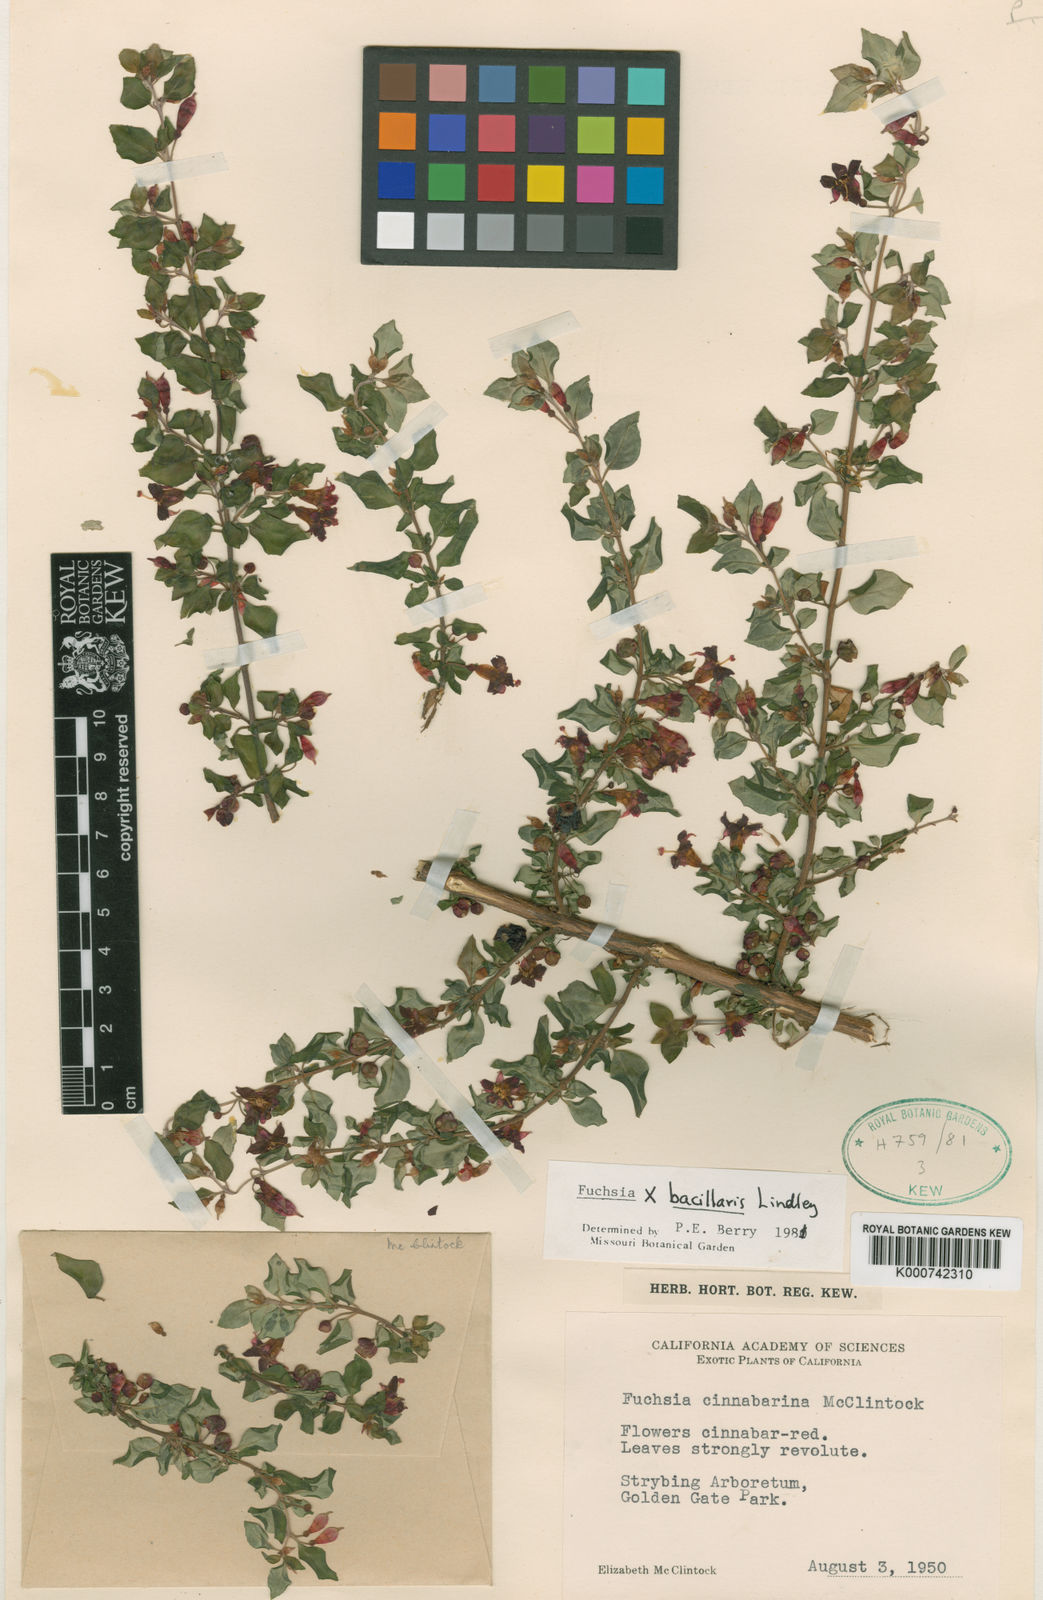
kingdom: Plantae
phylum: Tracheophyta
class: Magnoliopsida
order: Myrtales
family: Onagraceae
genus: Fuchsia
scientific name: Fuchsia bacillaris
